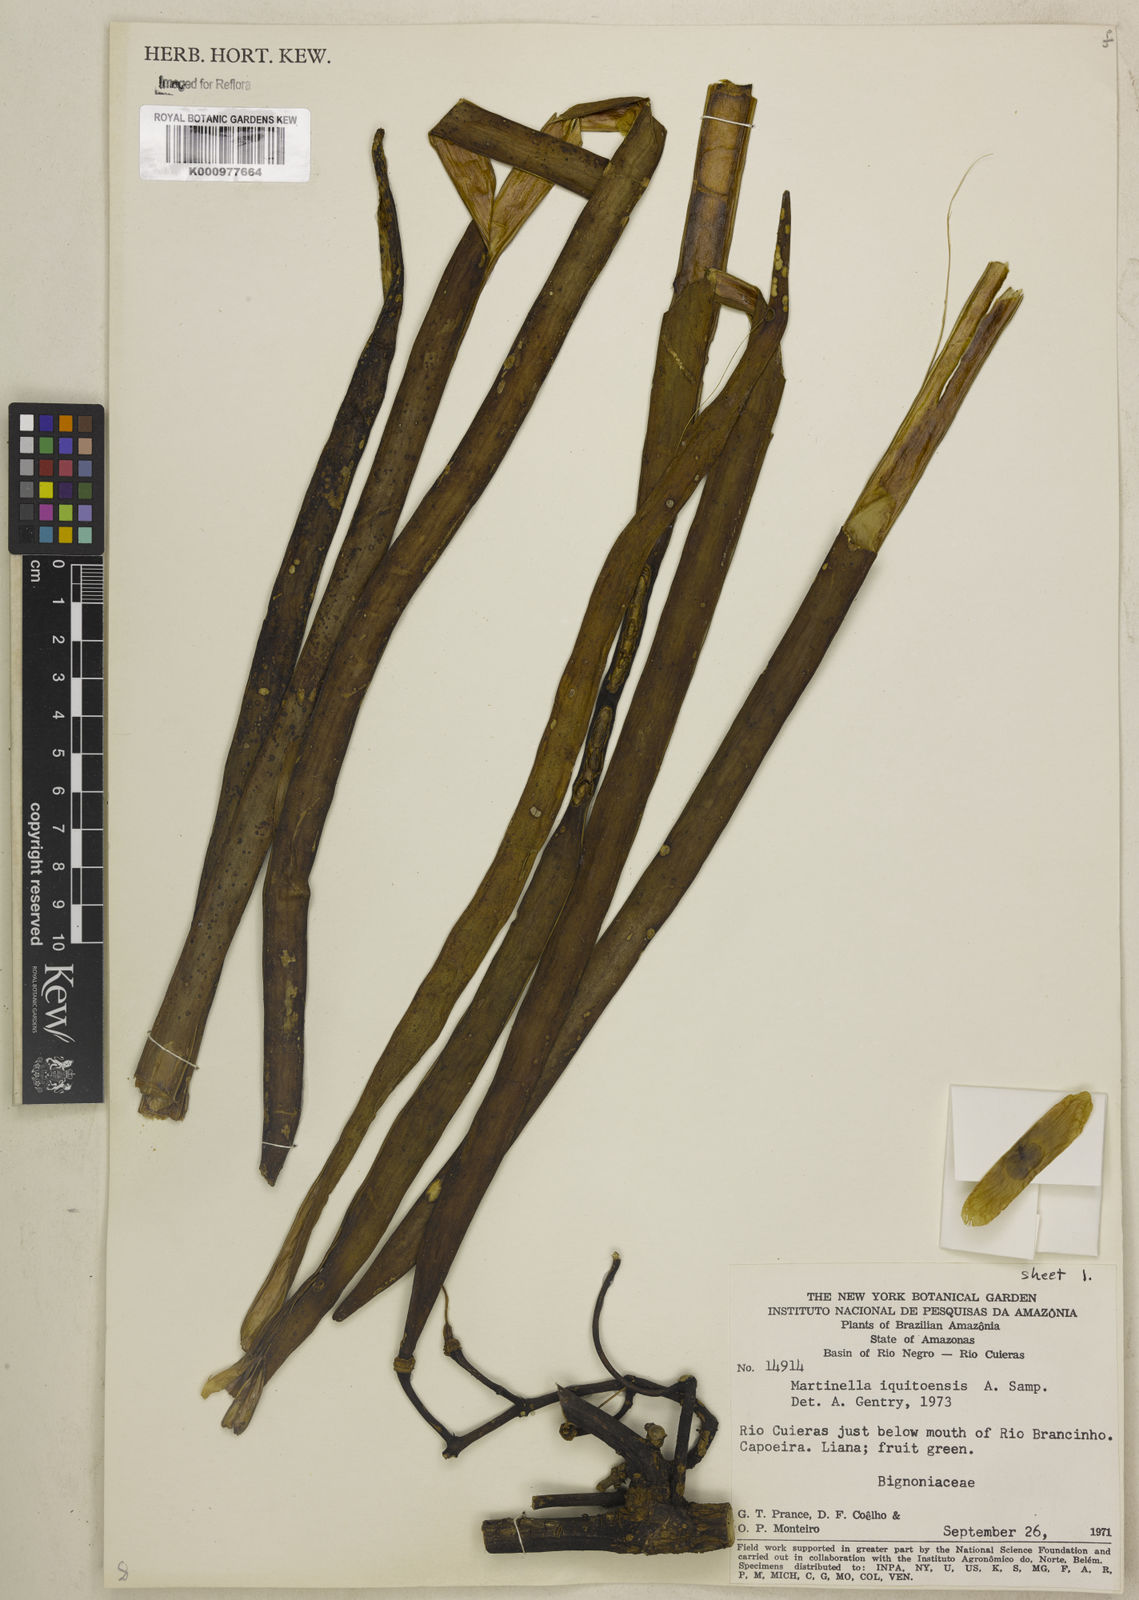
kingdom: Plantae
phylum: Tracheophyta
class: Magnoliopsida
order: Lamiales
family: Bignoniaceae
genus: Martinella
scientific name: Martinella iquitoensis
